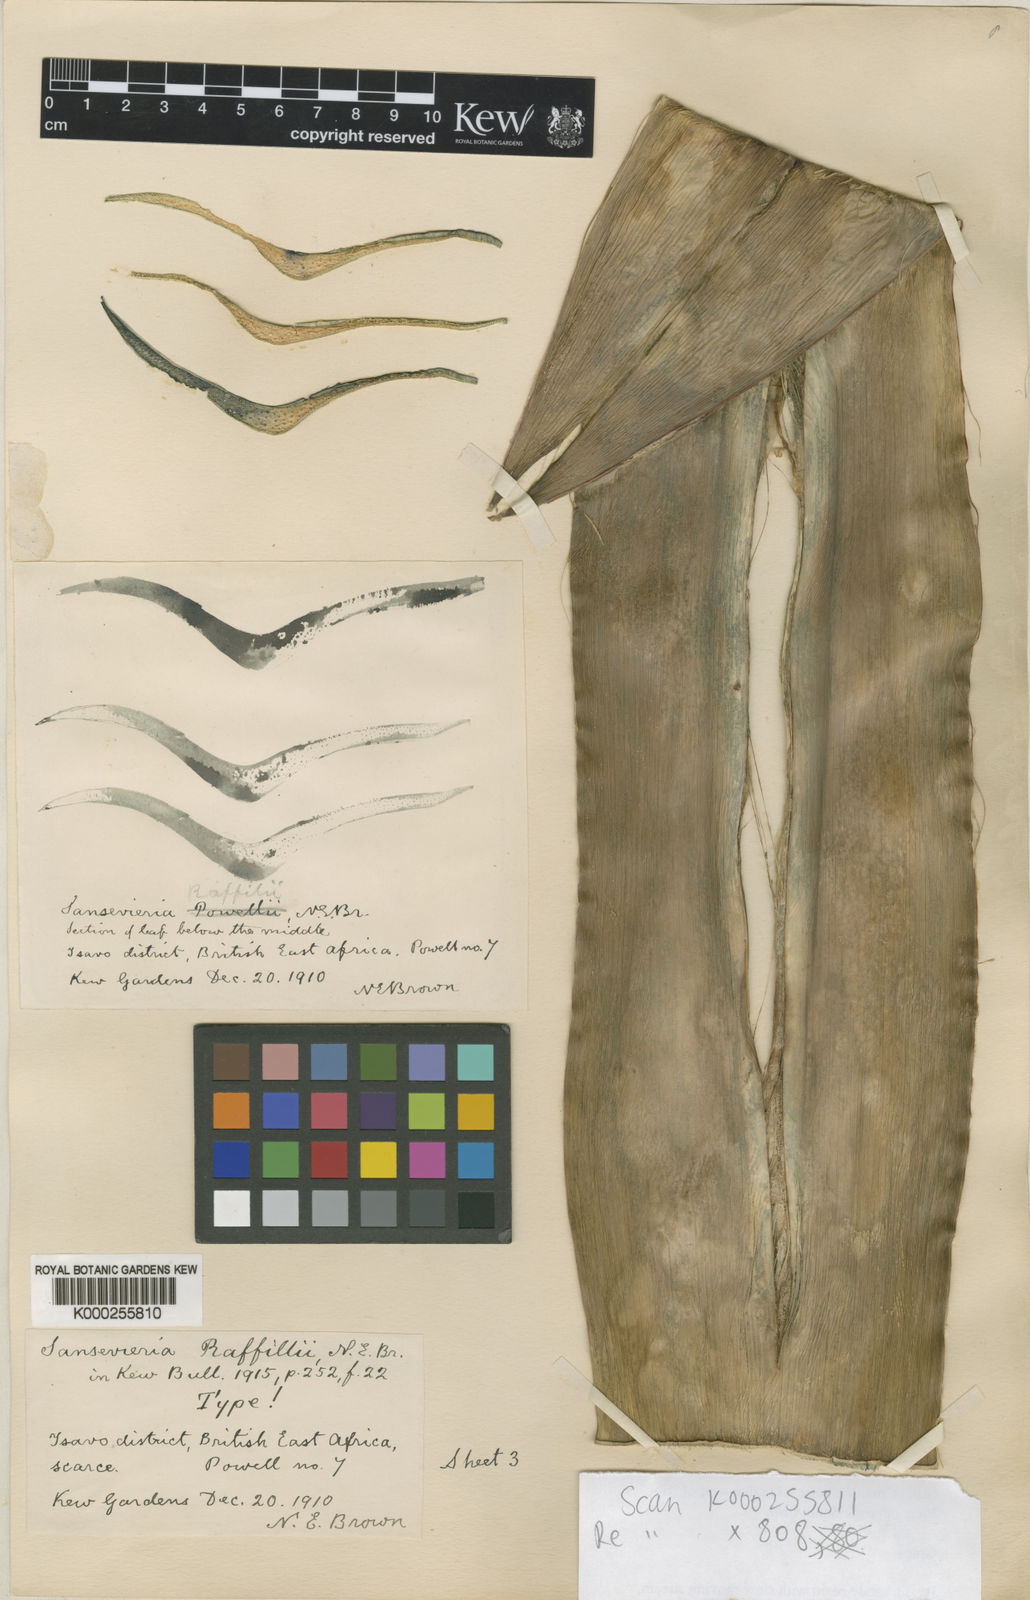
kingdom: Plantae
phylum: Tracheophyta
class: Liliopsida
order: Asparagales
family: Asparagaceae
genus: Dracaena
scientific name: Dracaena raffillii
